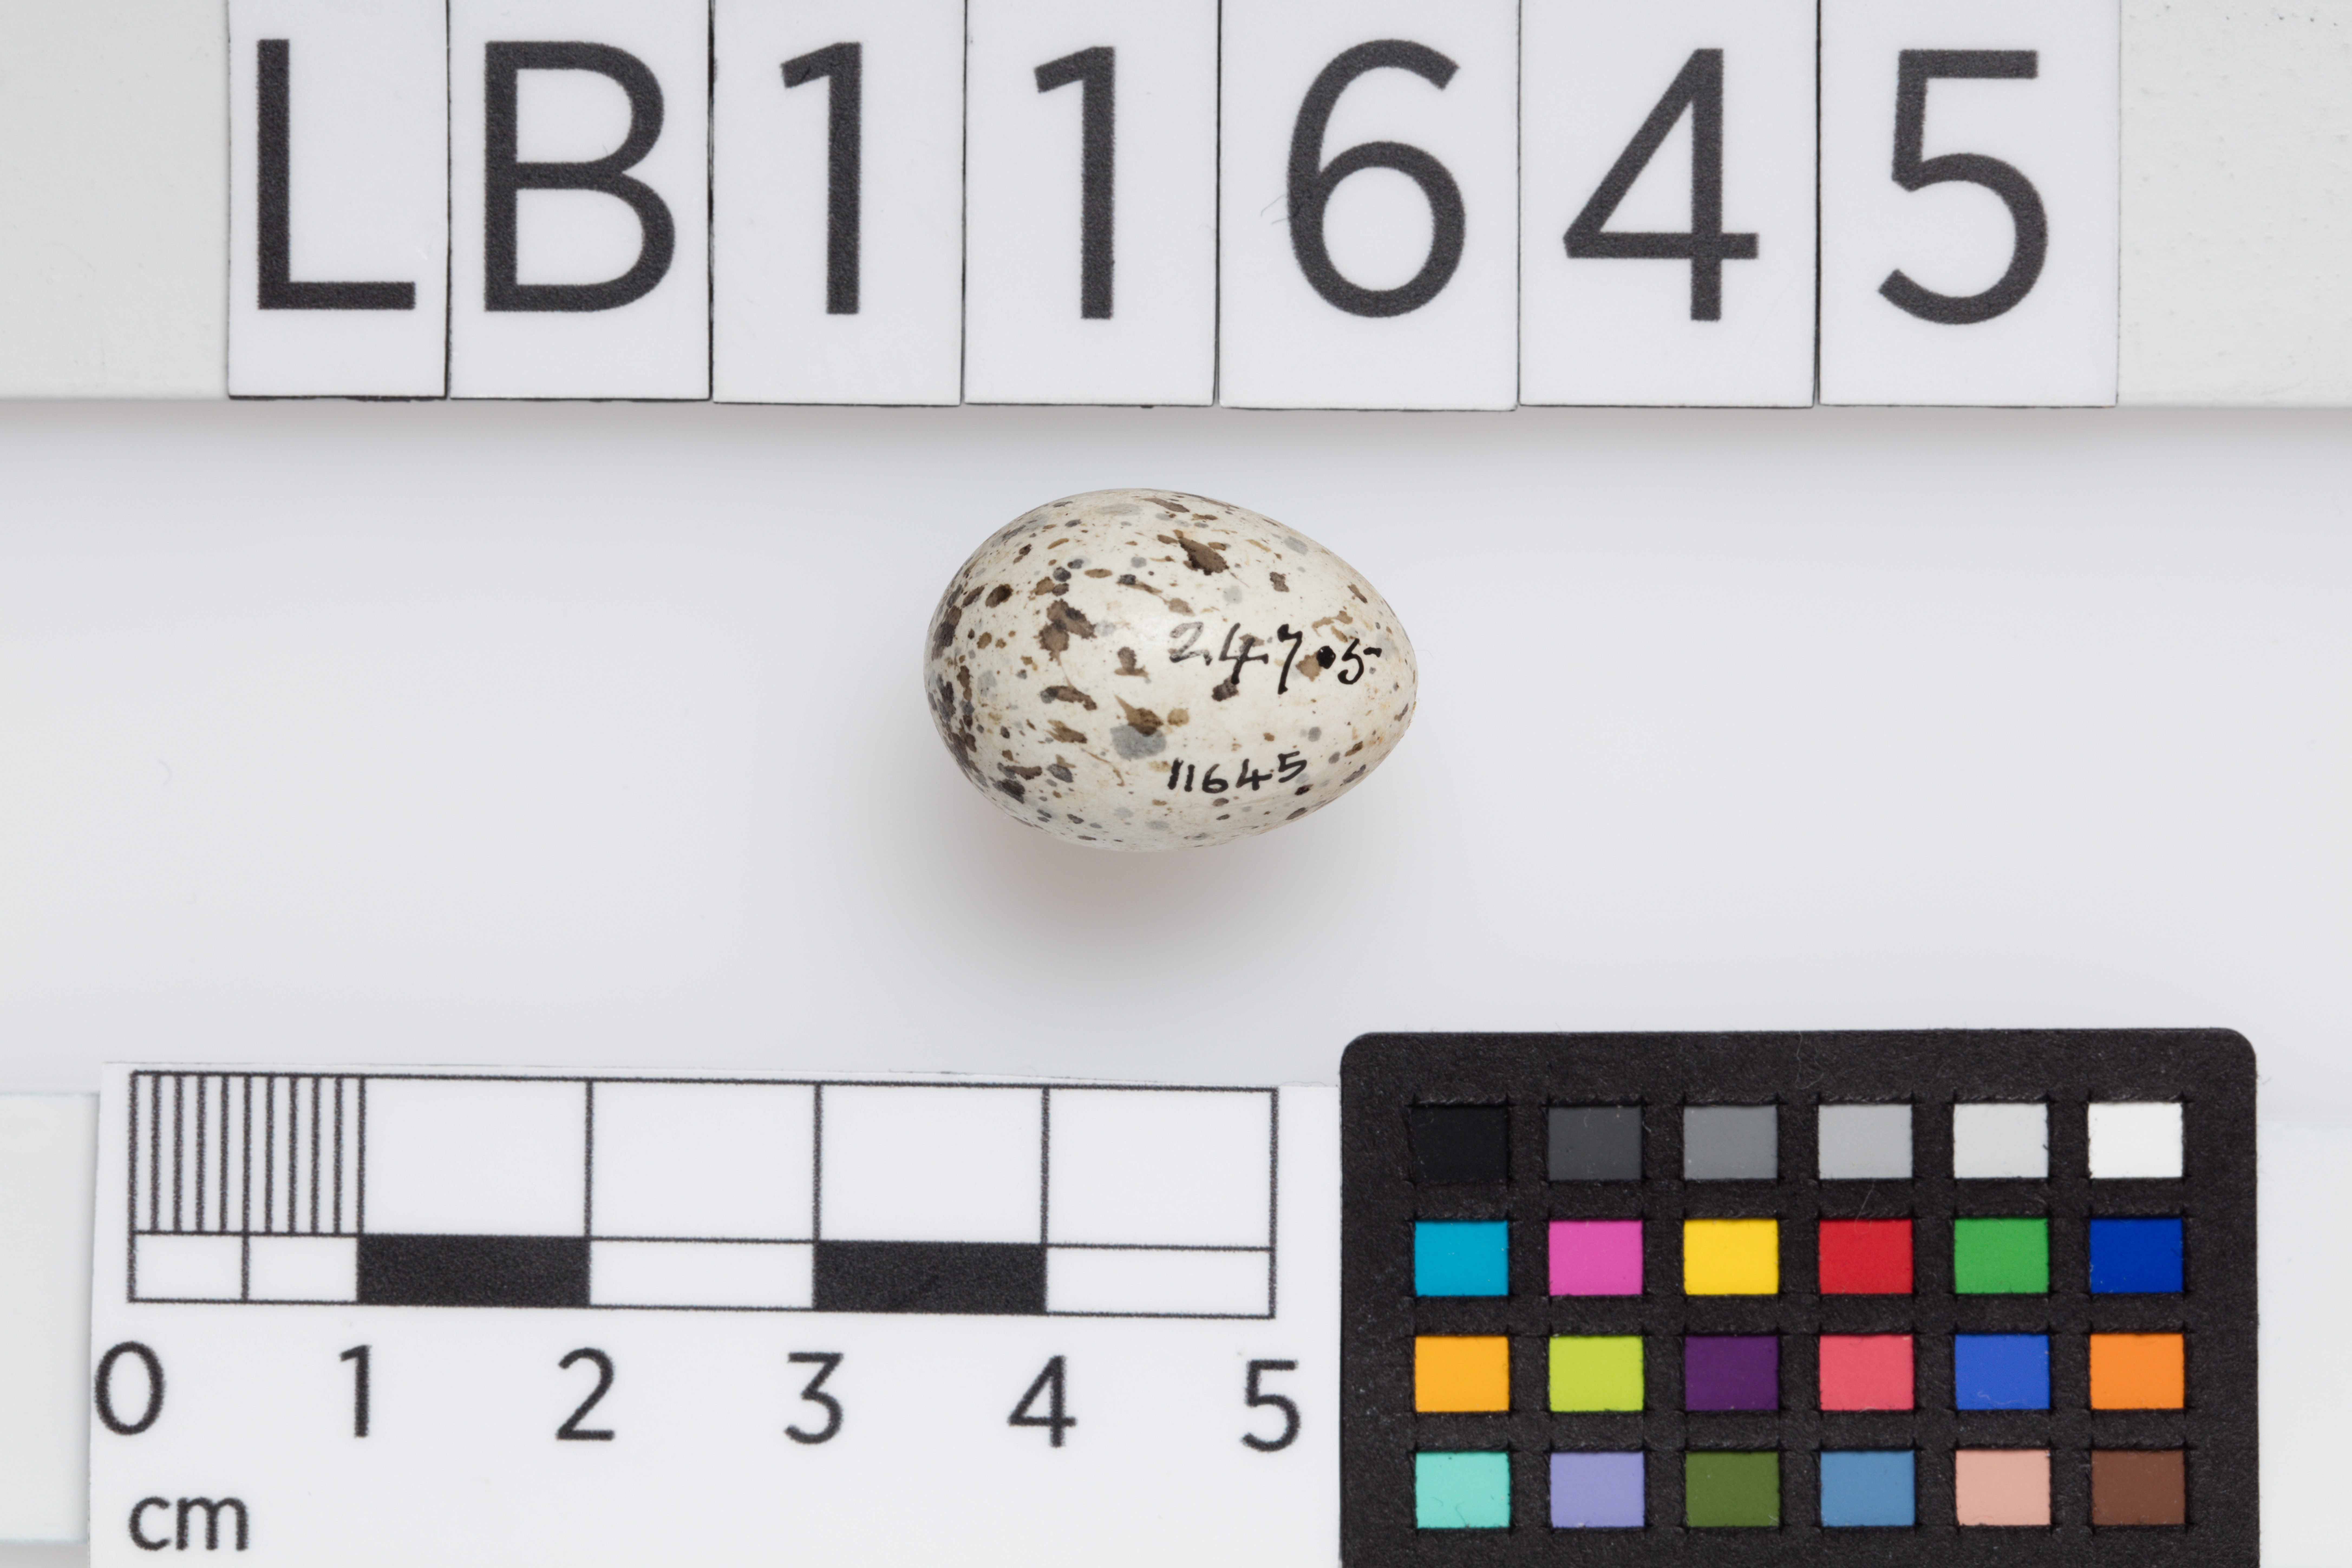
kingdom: Animalia
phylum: Chordata
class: Aves
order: Passeriformes
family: Passeridae
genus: Passer
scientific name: Passer domesticus
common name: House sparrow
